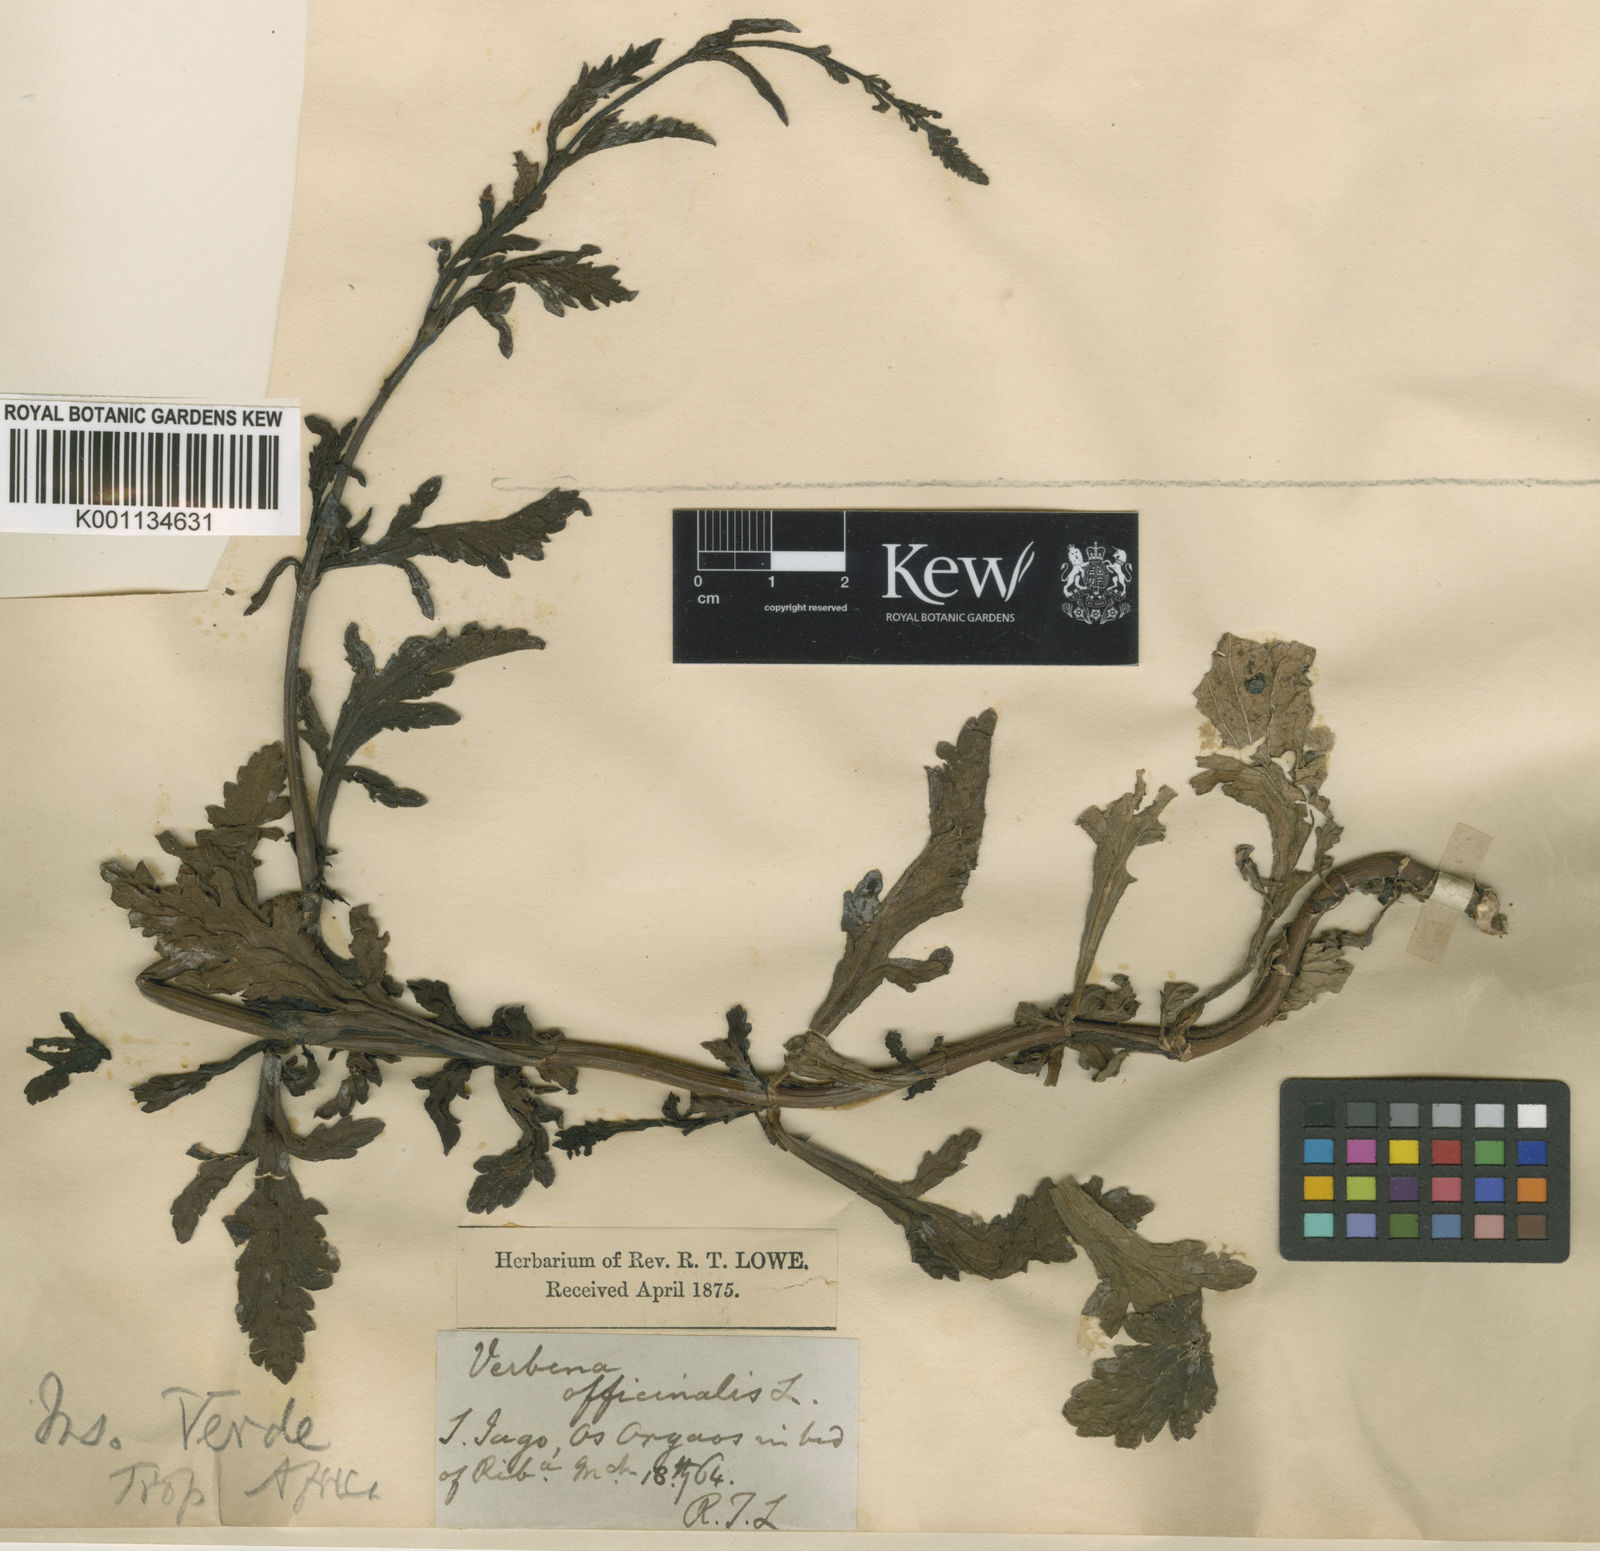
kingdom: Plantae
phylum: Tracheophyta
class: Magnoliopsida
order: Lamiales
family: Verbenaceae
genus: Verbena
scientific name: Verbena officinalis
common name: Vervain
